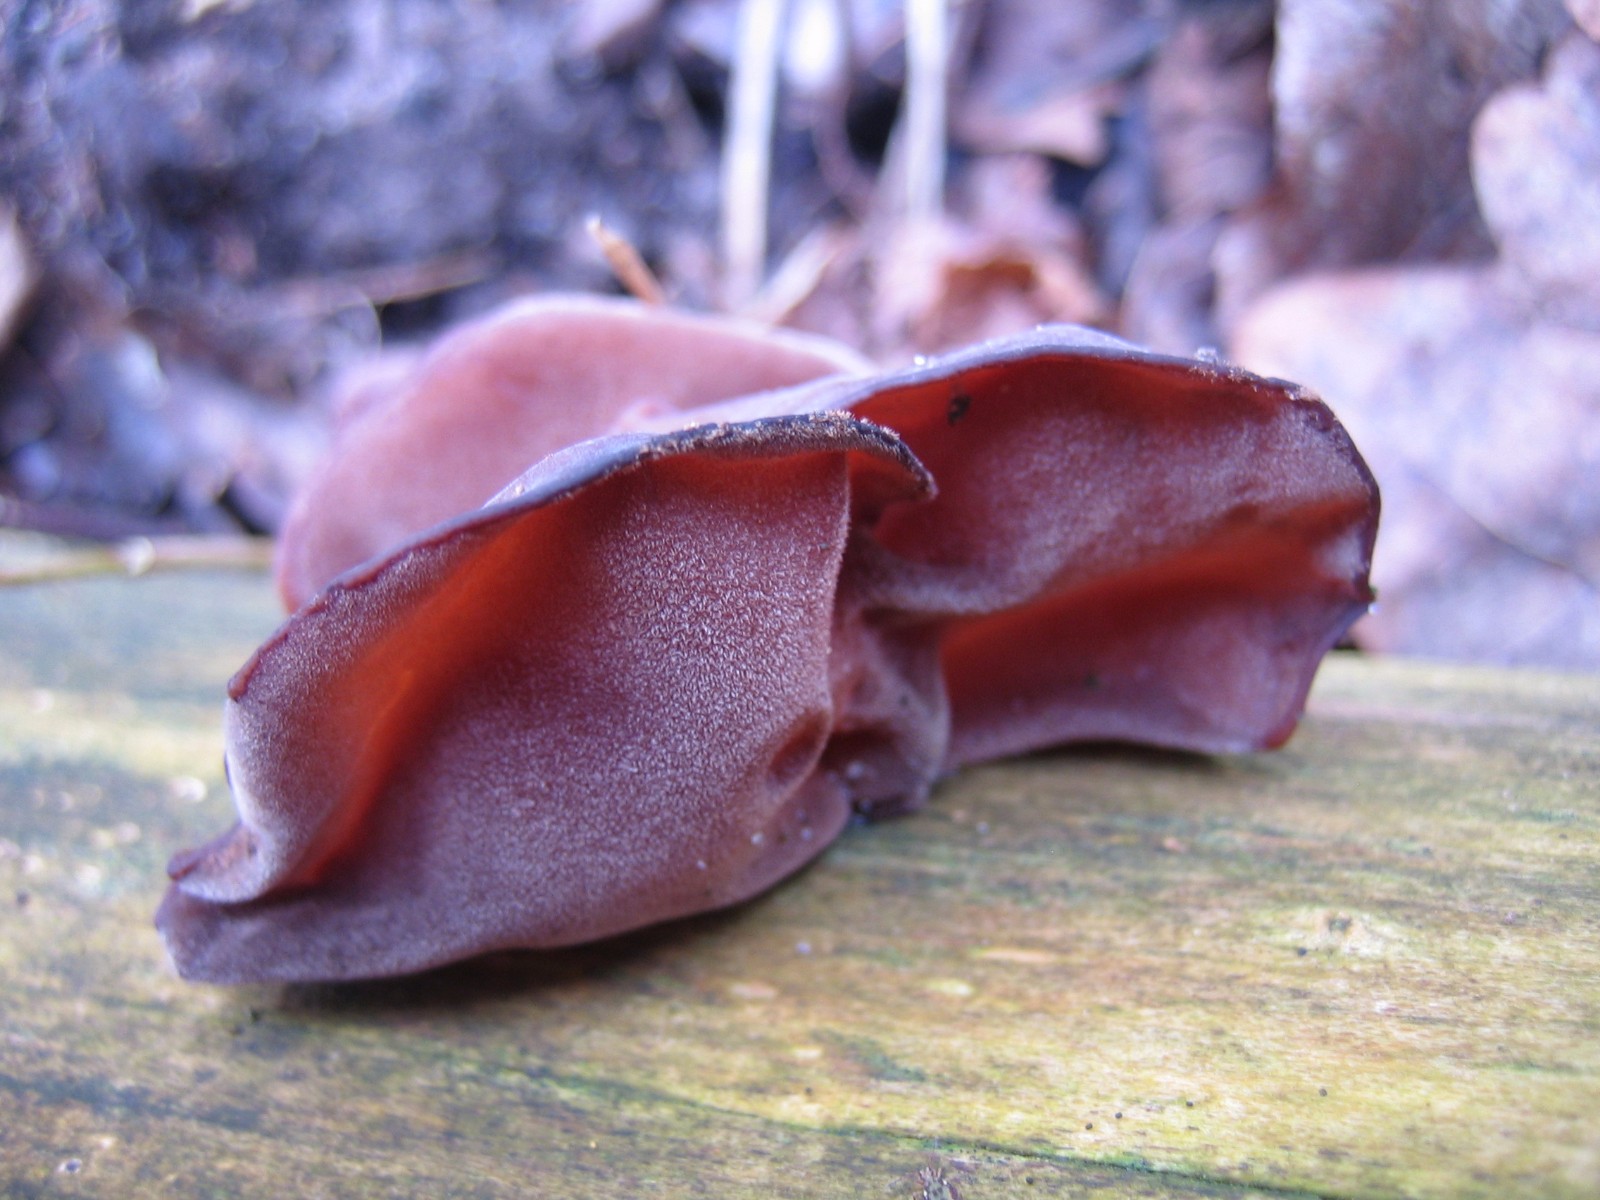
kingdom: Fungi
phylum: Basidiomycota
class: Agaricomycetes
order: Auriculariales
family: Auriculariaceae
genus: Auricularia
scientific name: Auricularia auricula-judae
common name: almindelig judasøre
